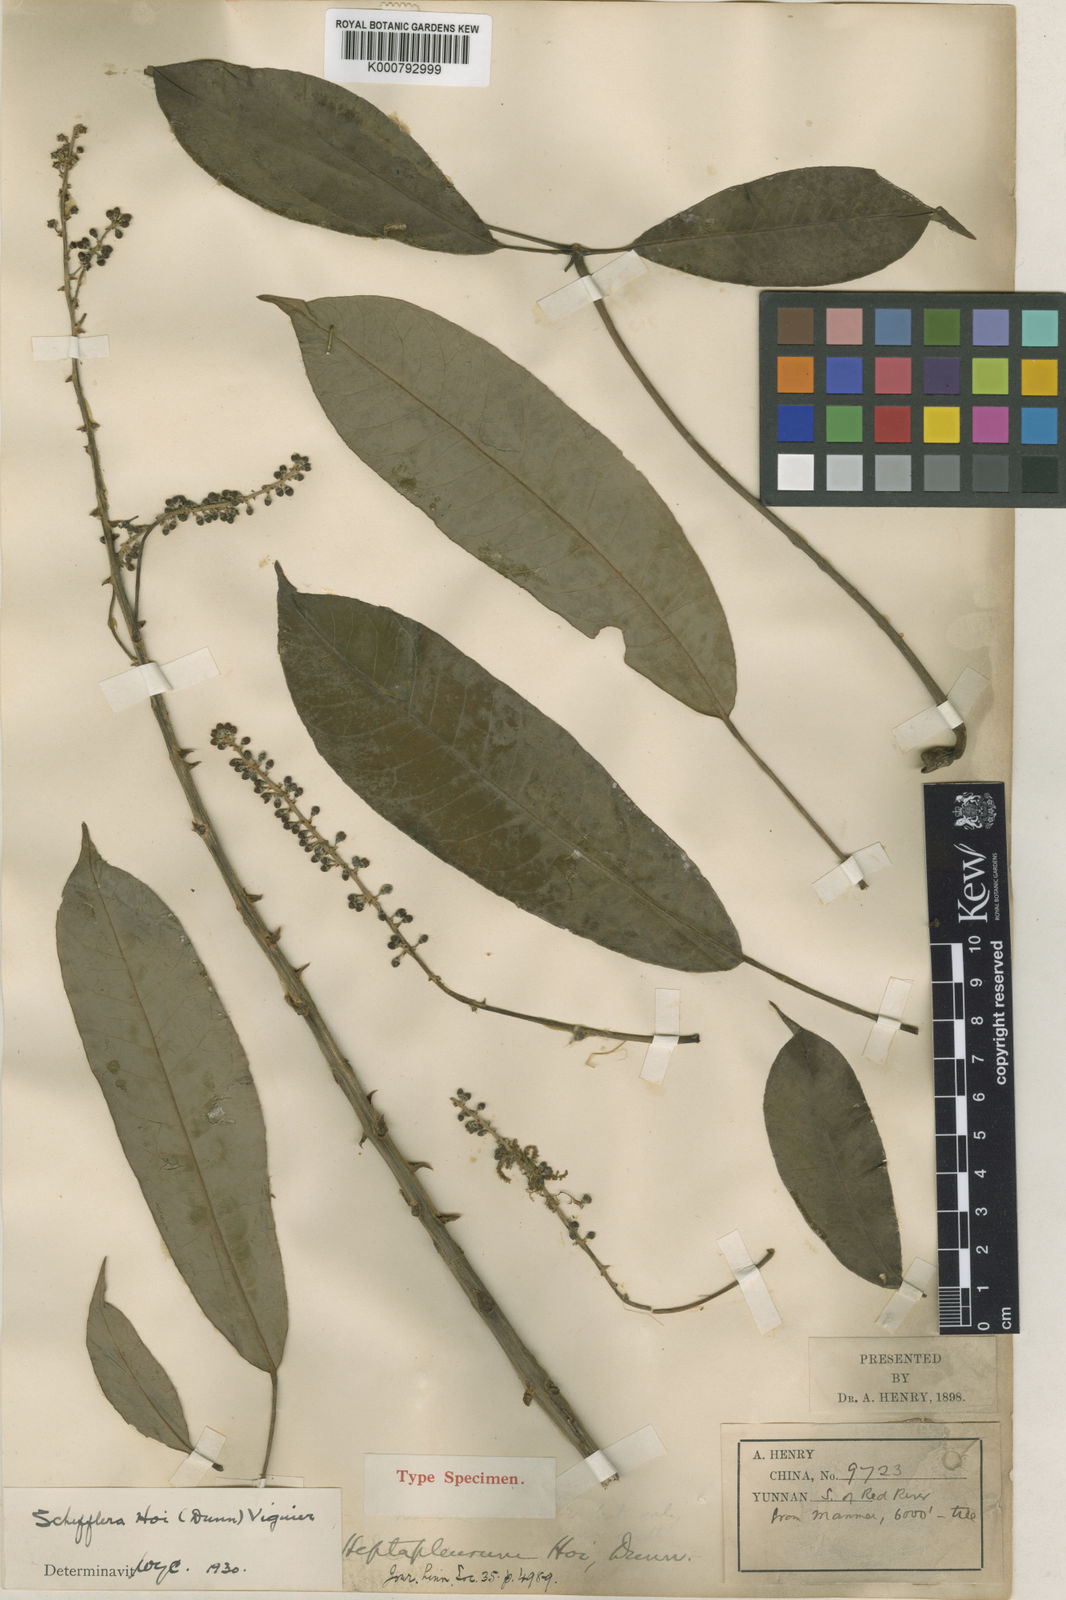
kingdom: Plantae
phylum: Tracheophyta
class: Magnoliopsida
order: Apiales
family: Araliaceae
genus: Heptapleurum
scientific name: Heptapleurum hoi
